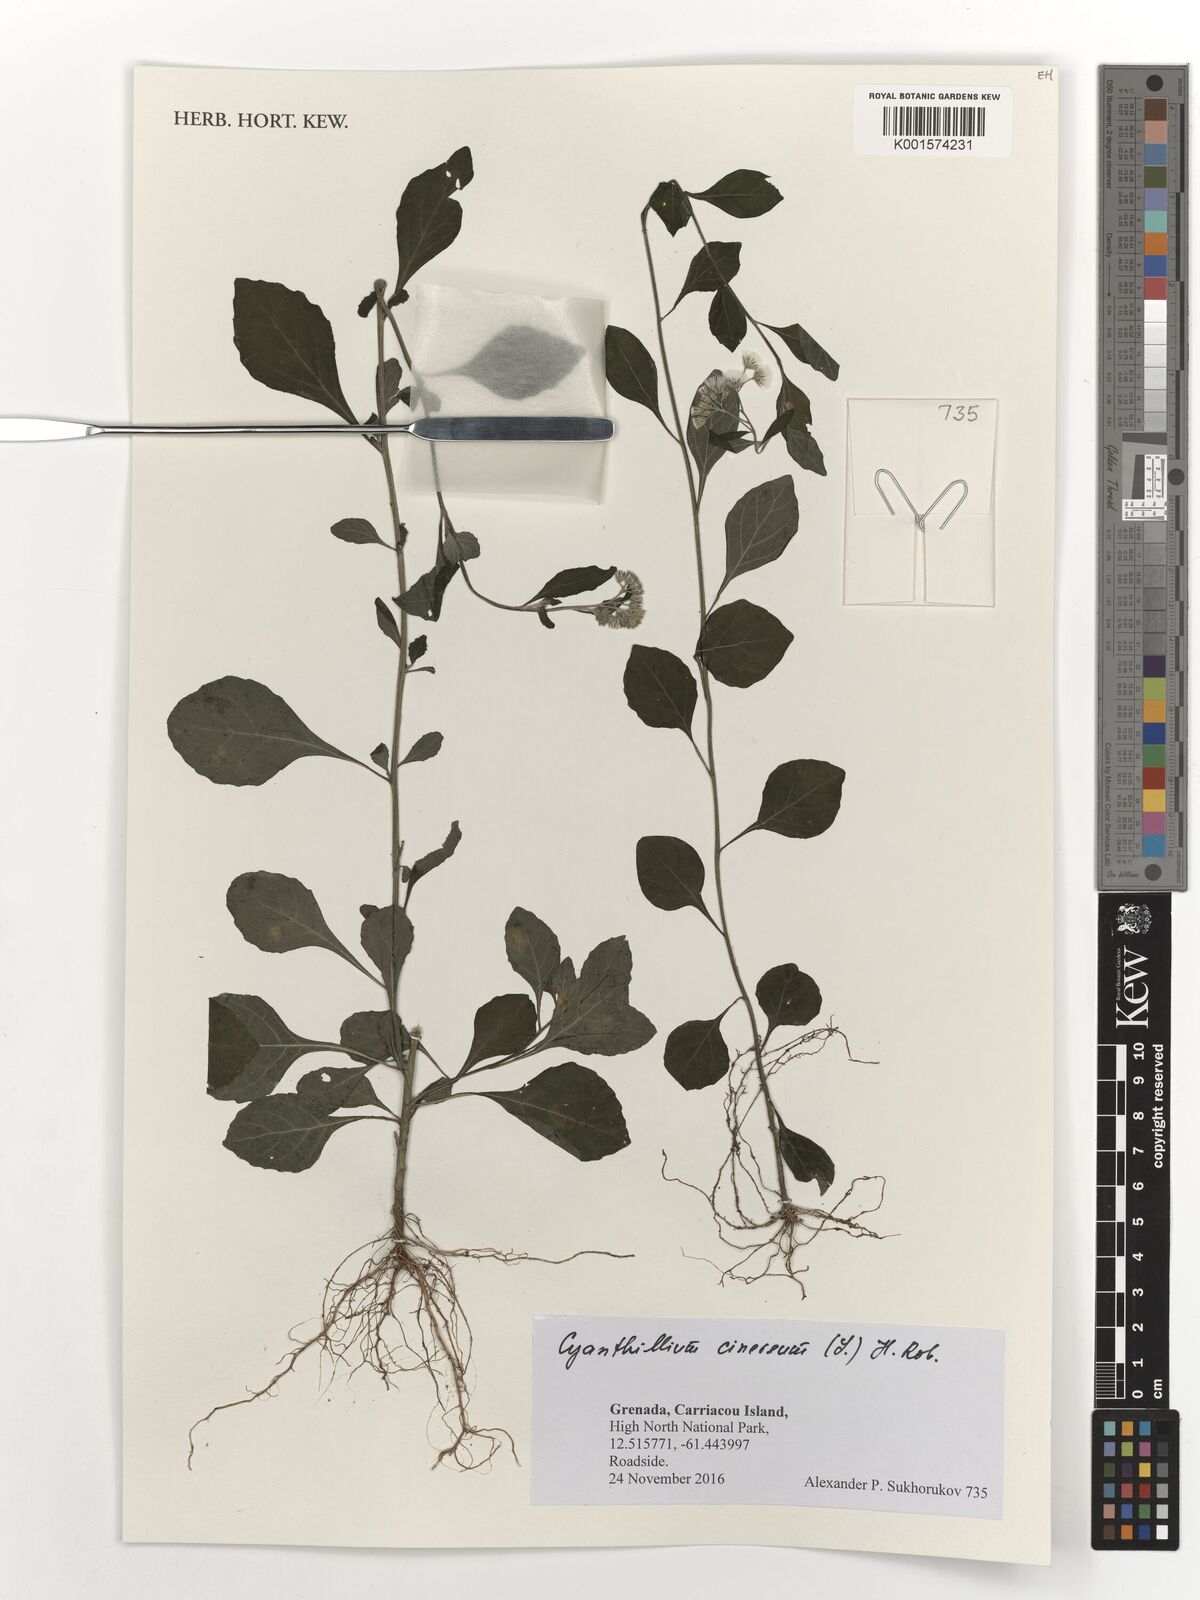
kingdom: Plantae
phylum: Tracheophyta
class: Magnoliopsida
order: Asterales
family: Asteraceae
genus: Cyanthillium
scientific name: Cyanthillium cinereum
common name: Little ironweed
